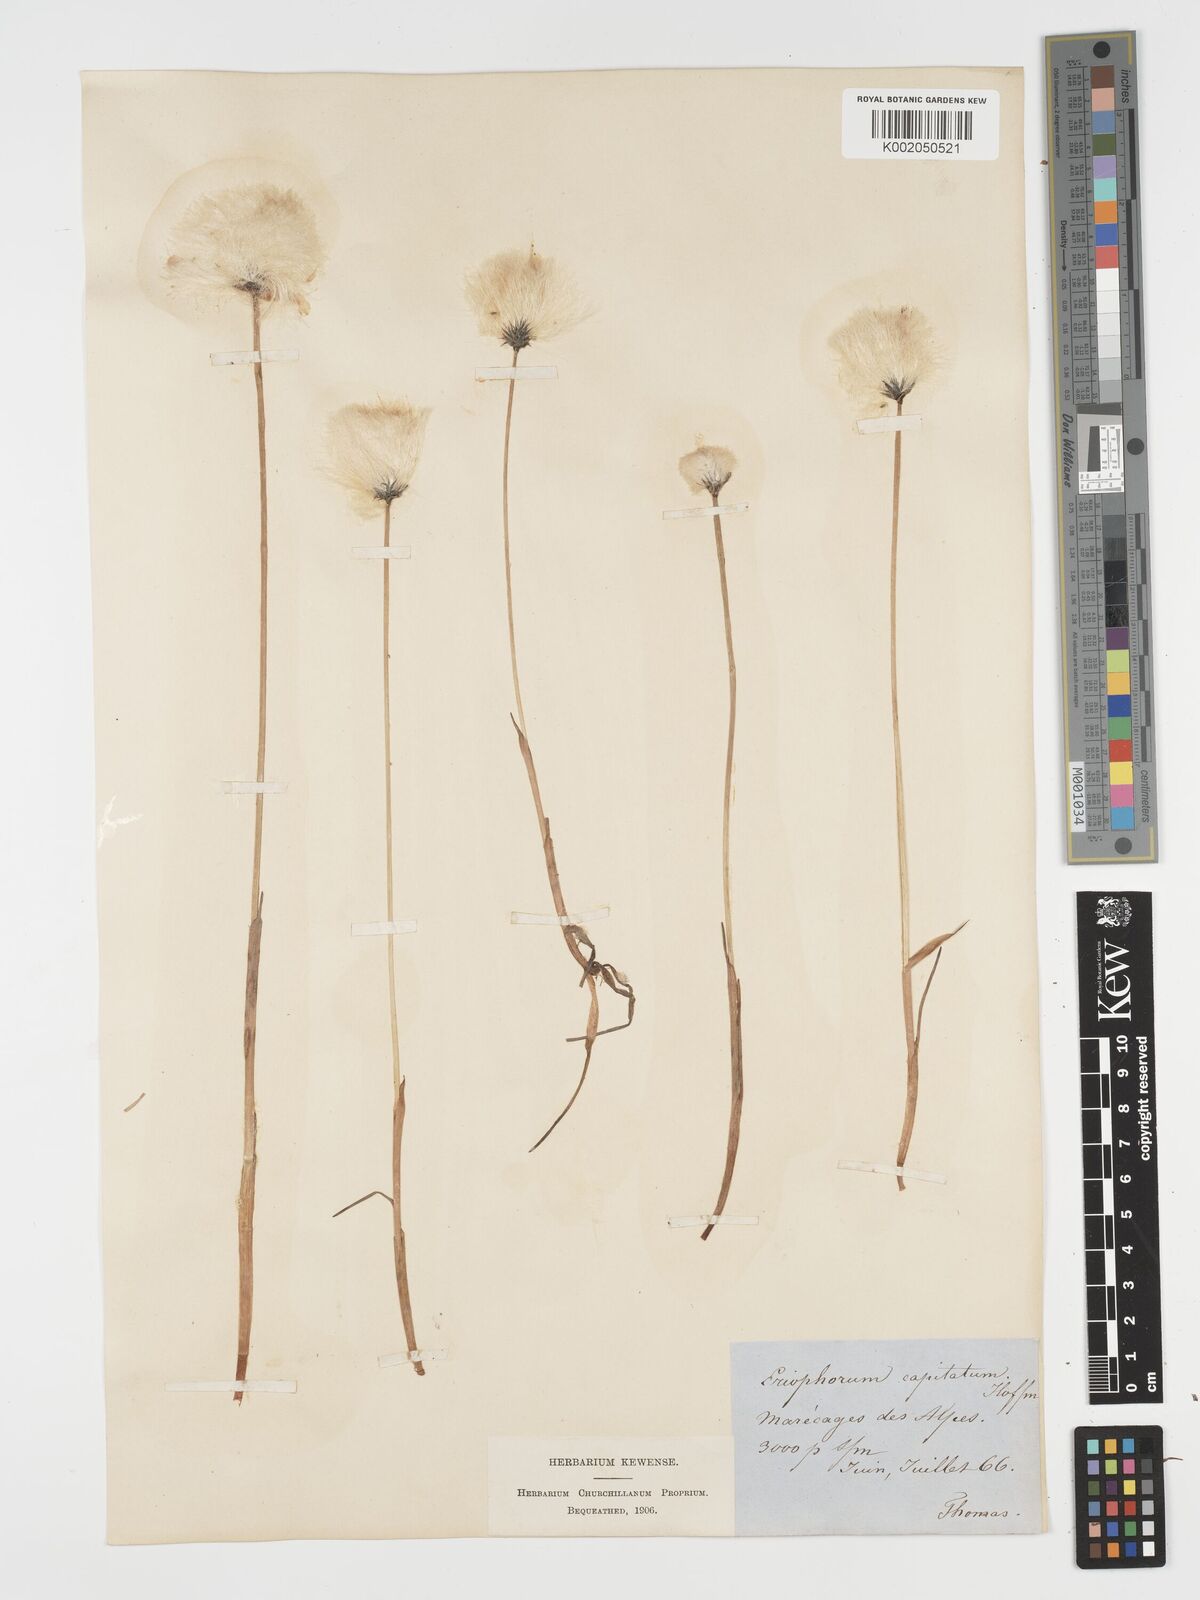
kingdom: Plantae
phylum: Tracheophyta
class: Liliopsida
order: Poales
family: Cyperaceae
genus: Eriophorum
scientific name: Eriophorum scheuchzeri
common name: Scheuchzer's cottongrass
